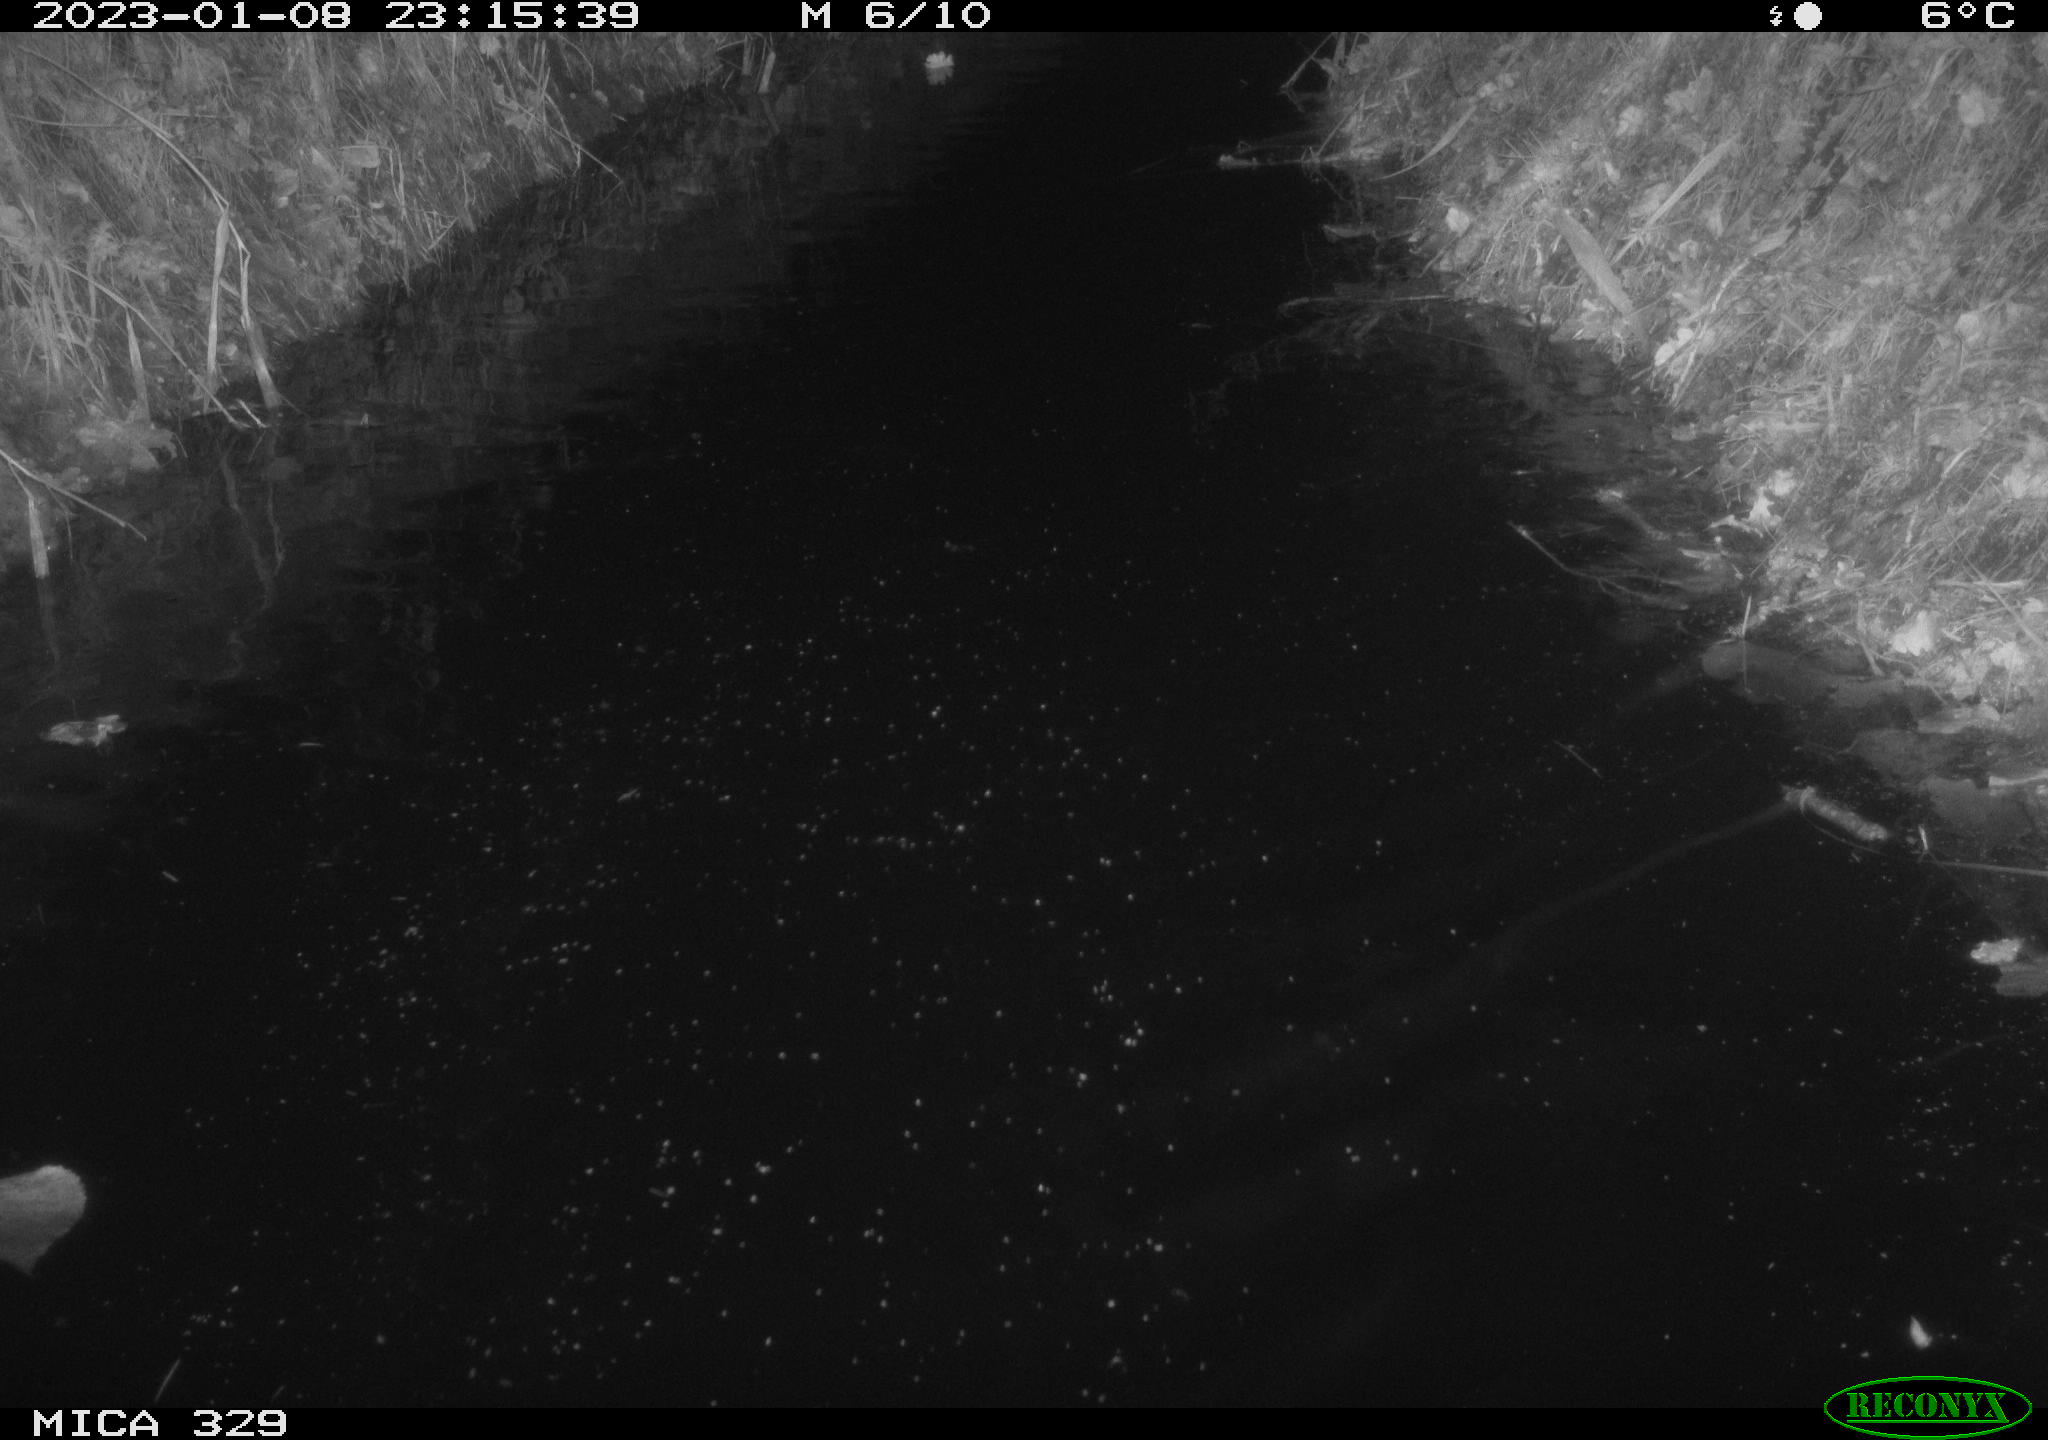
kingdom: Animalia
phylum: Chordata
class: Mammalia
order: Rodentia
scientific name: Rodentia
